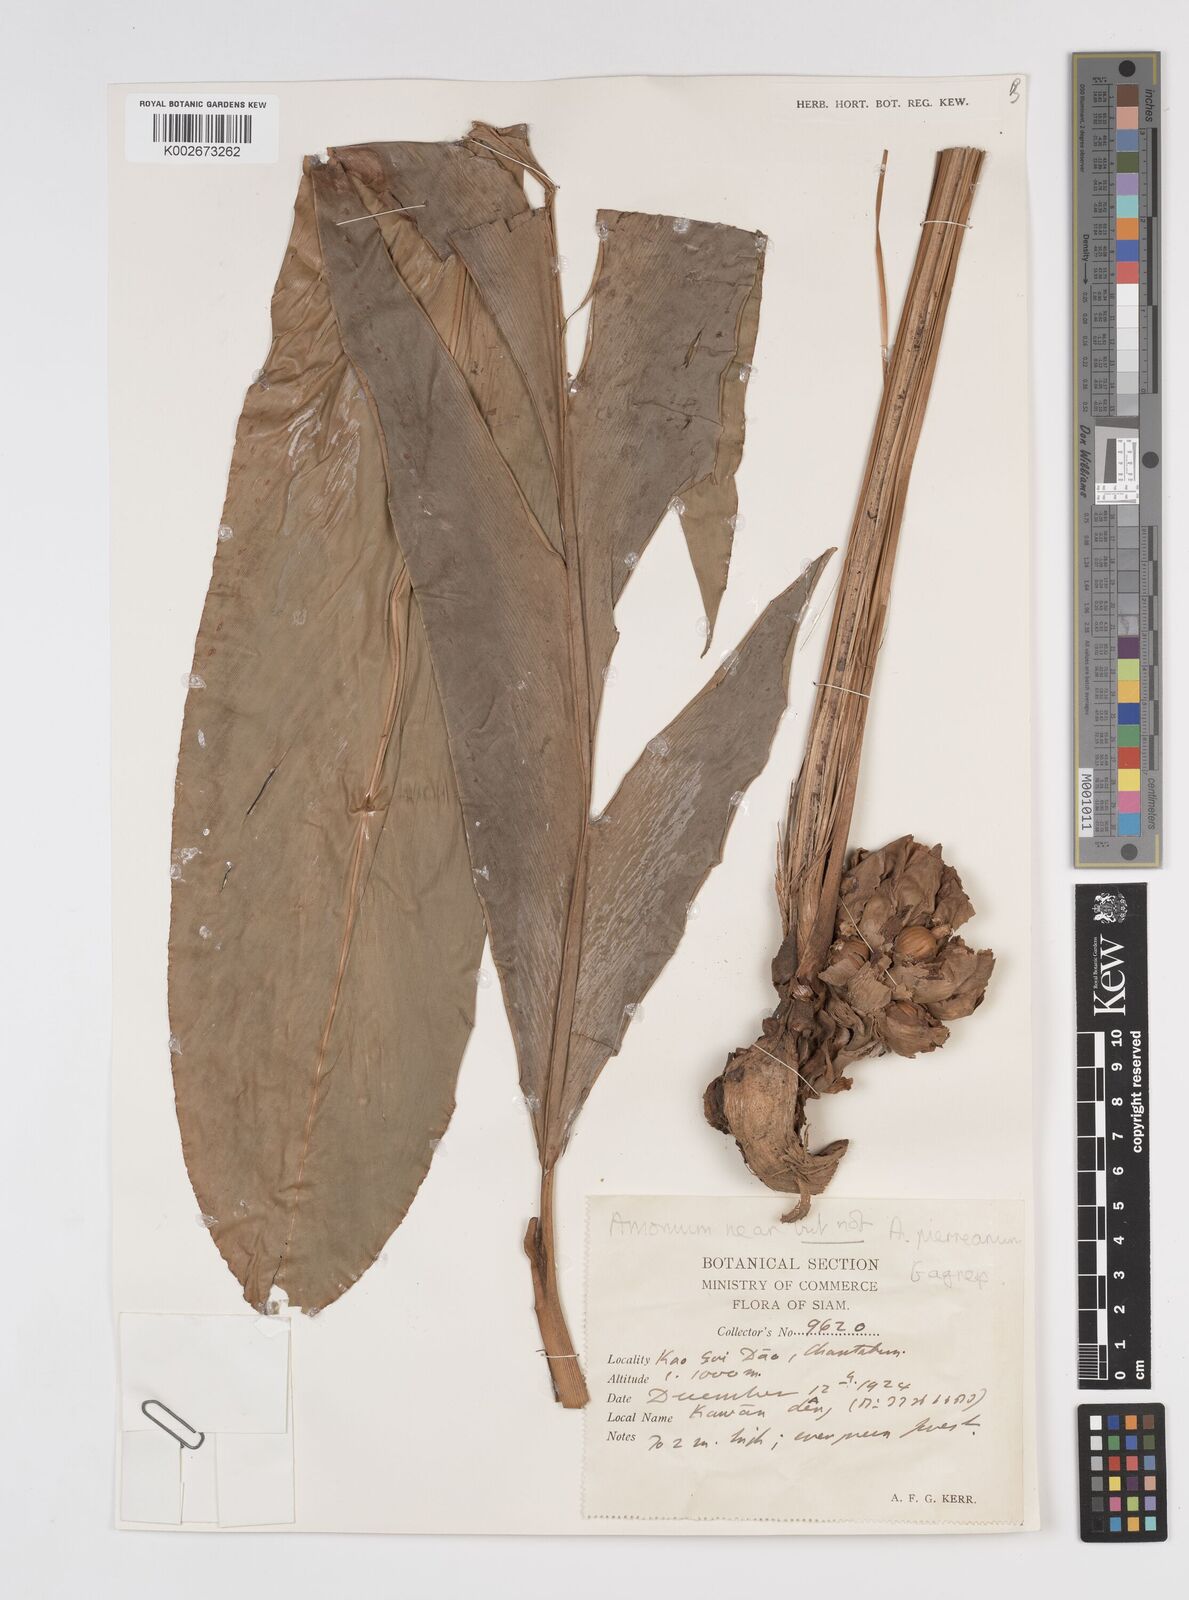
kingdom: Plantae
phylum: Tracheophyta
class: Liliopsida
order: Zingiberales
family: Zingiberaceae
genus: Amomum
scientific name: Amomum
